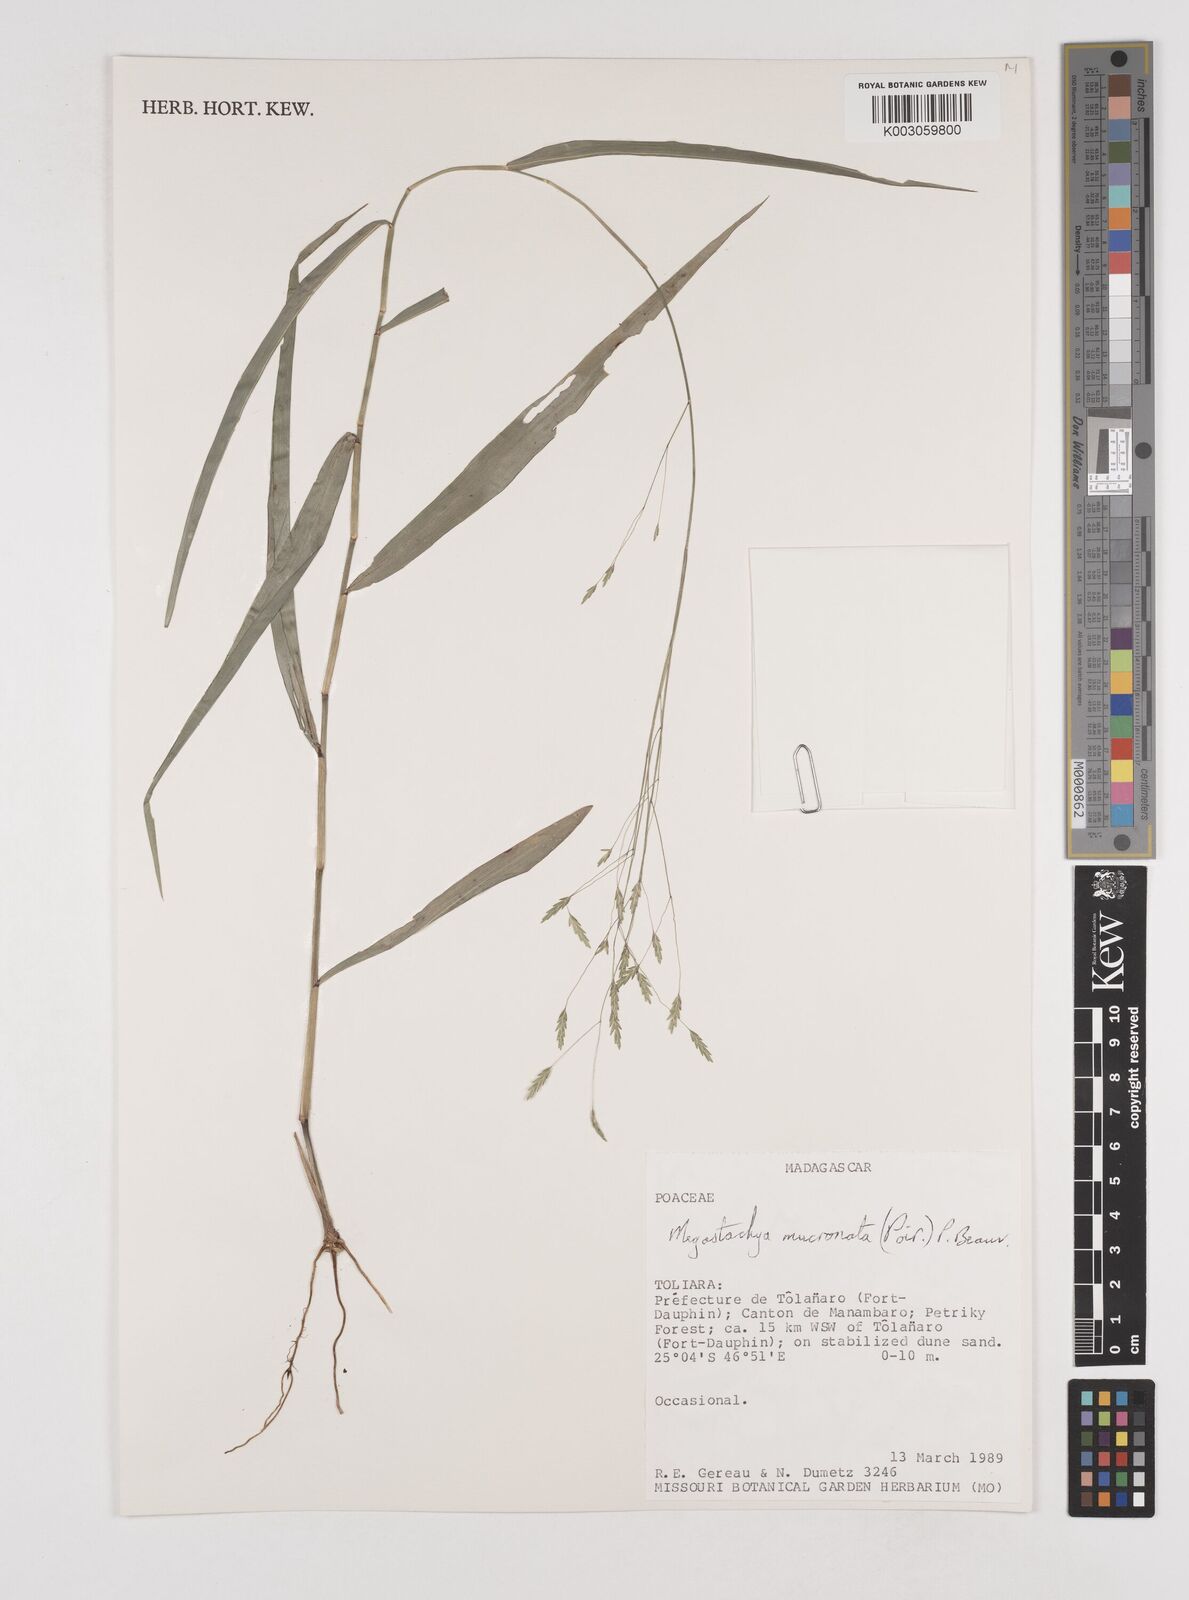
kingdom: Plantae
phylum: Tracheophyta
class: Liliopsida
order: Poales
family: Poaceae
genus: Megastachya
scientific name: Megastachya mucronata
